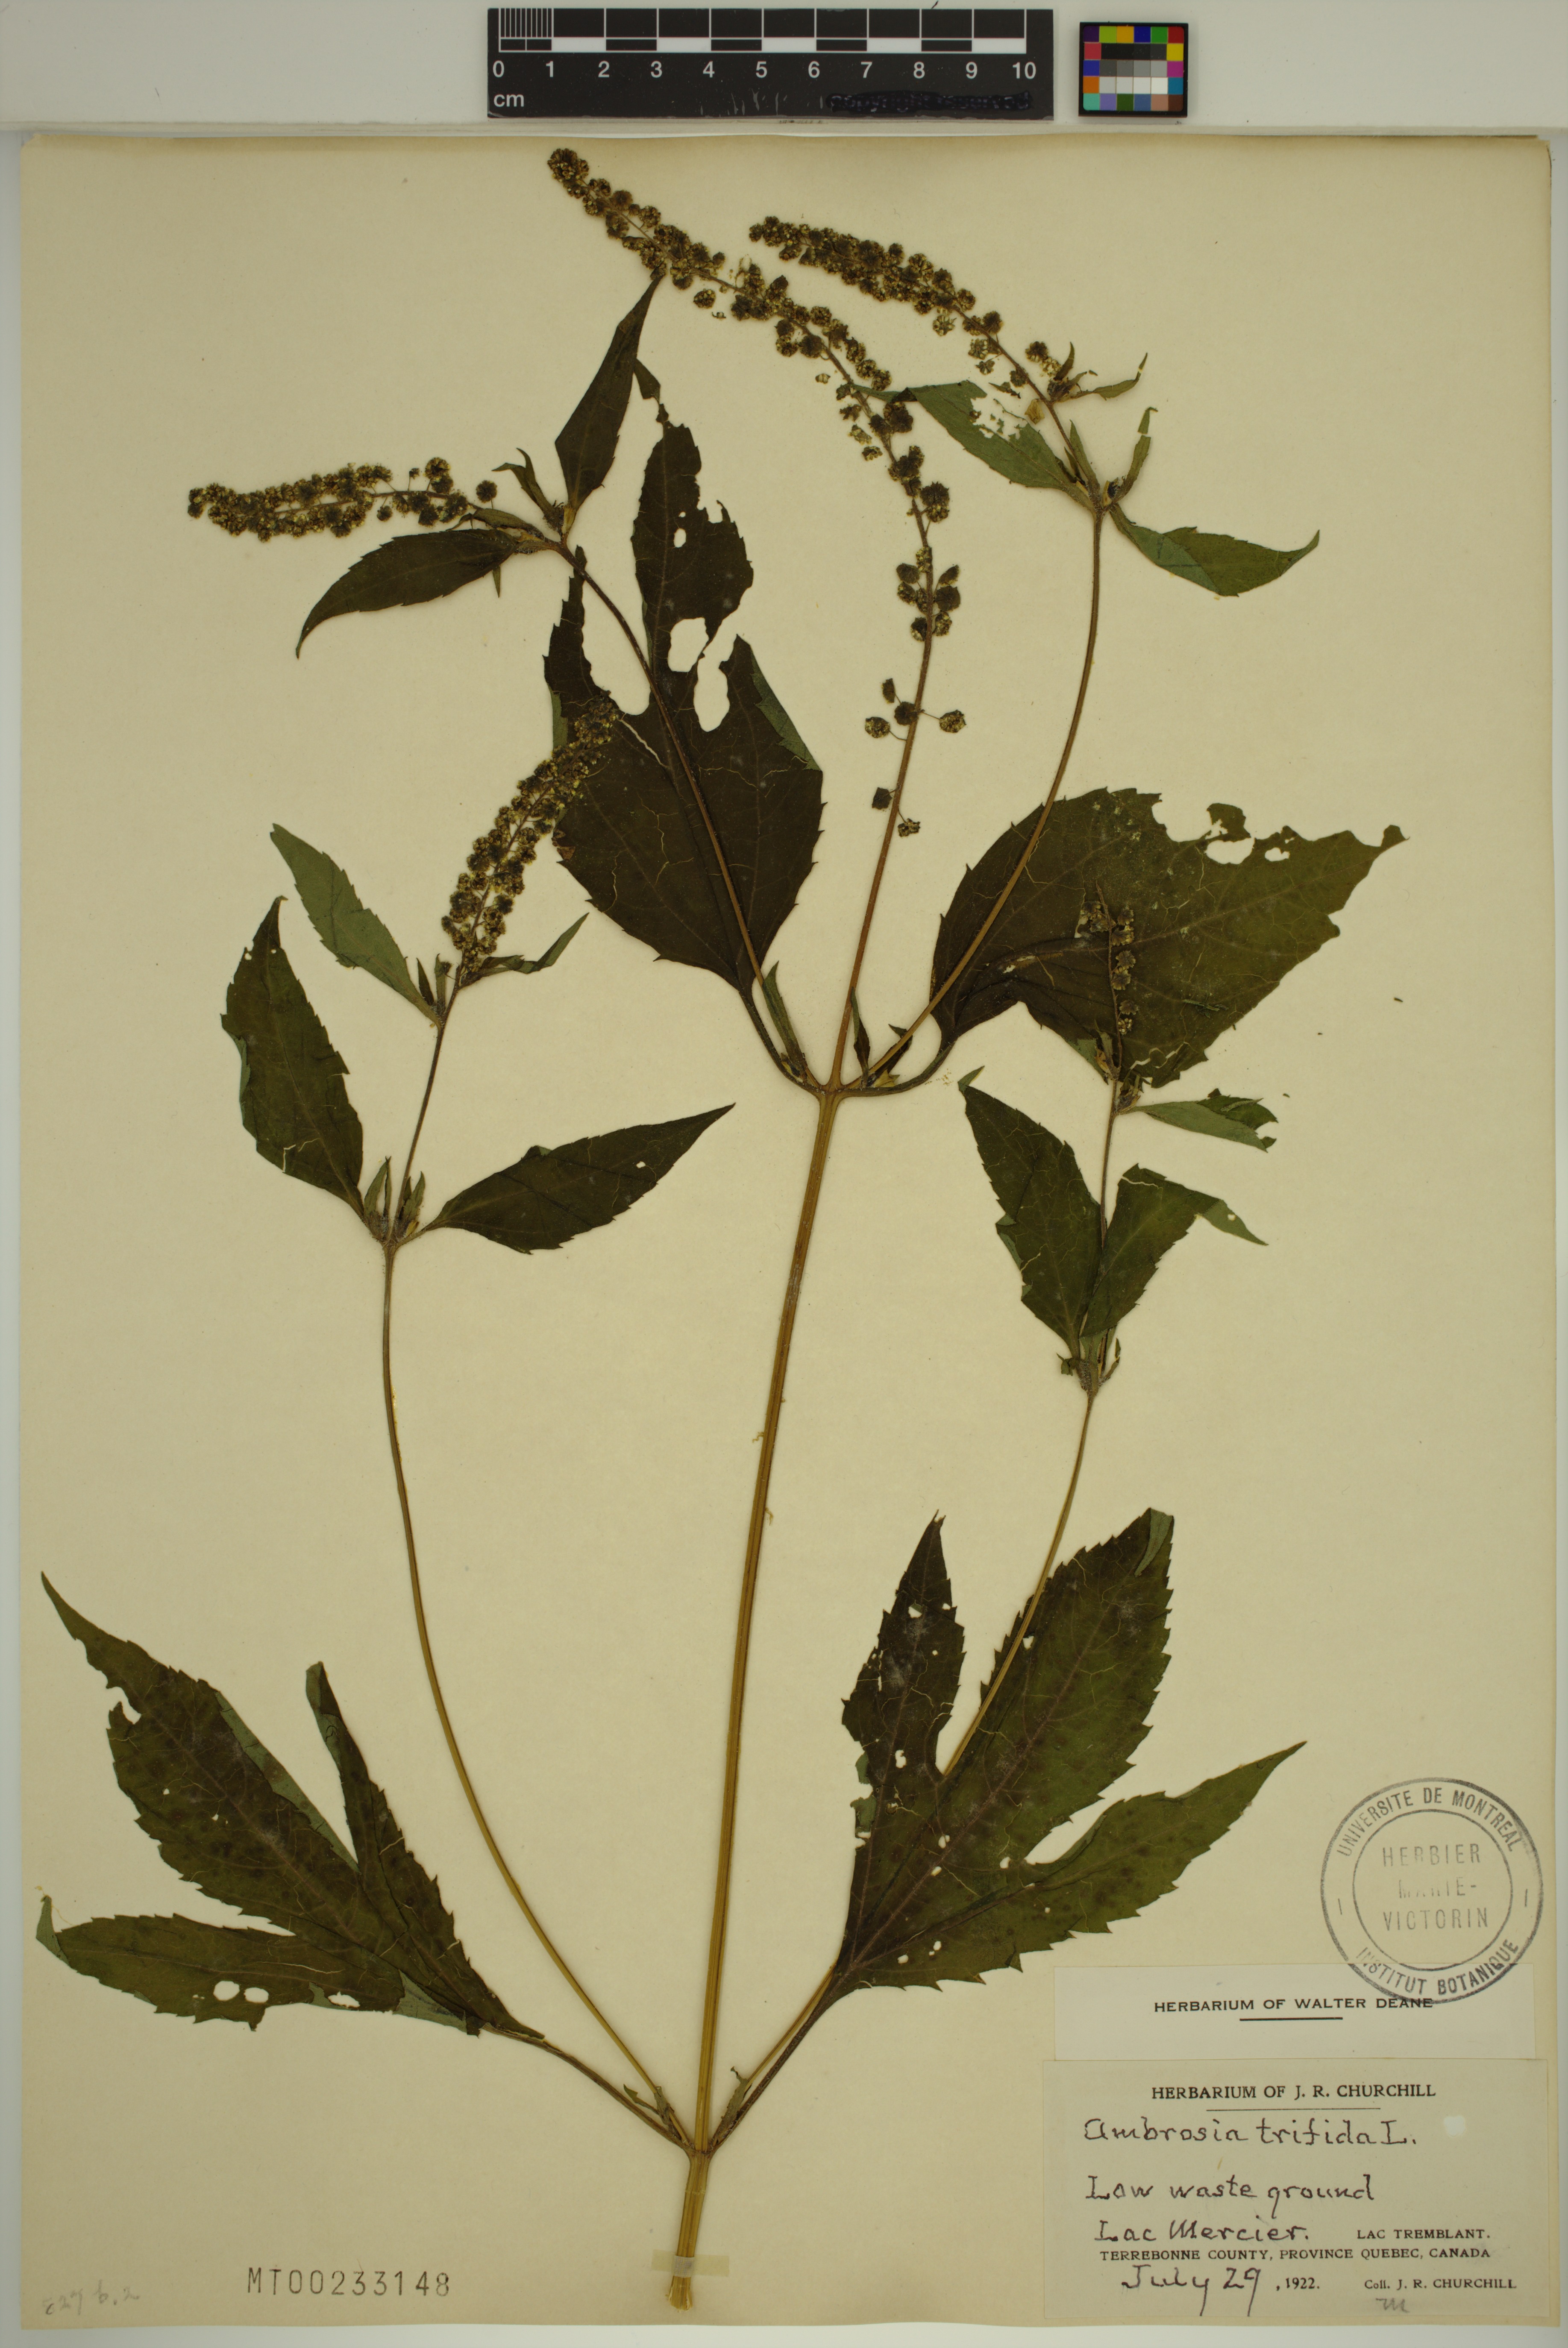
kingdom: Plantae
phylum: Tracheophyta
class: Magnoliopsida
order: Asterales
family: Asteraceae
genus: Ambrosia
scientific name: Ambrosia trifida
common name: Giant ragweed
